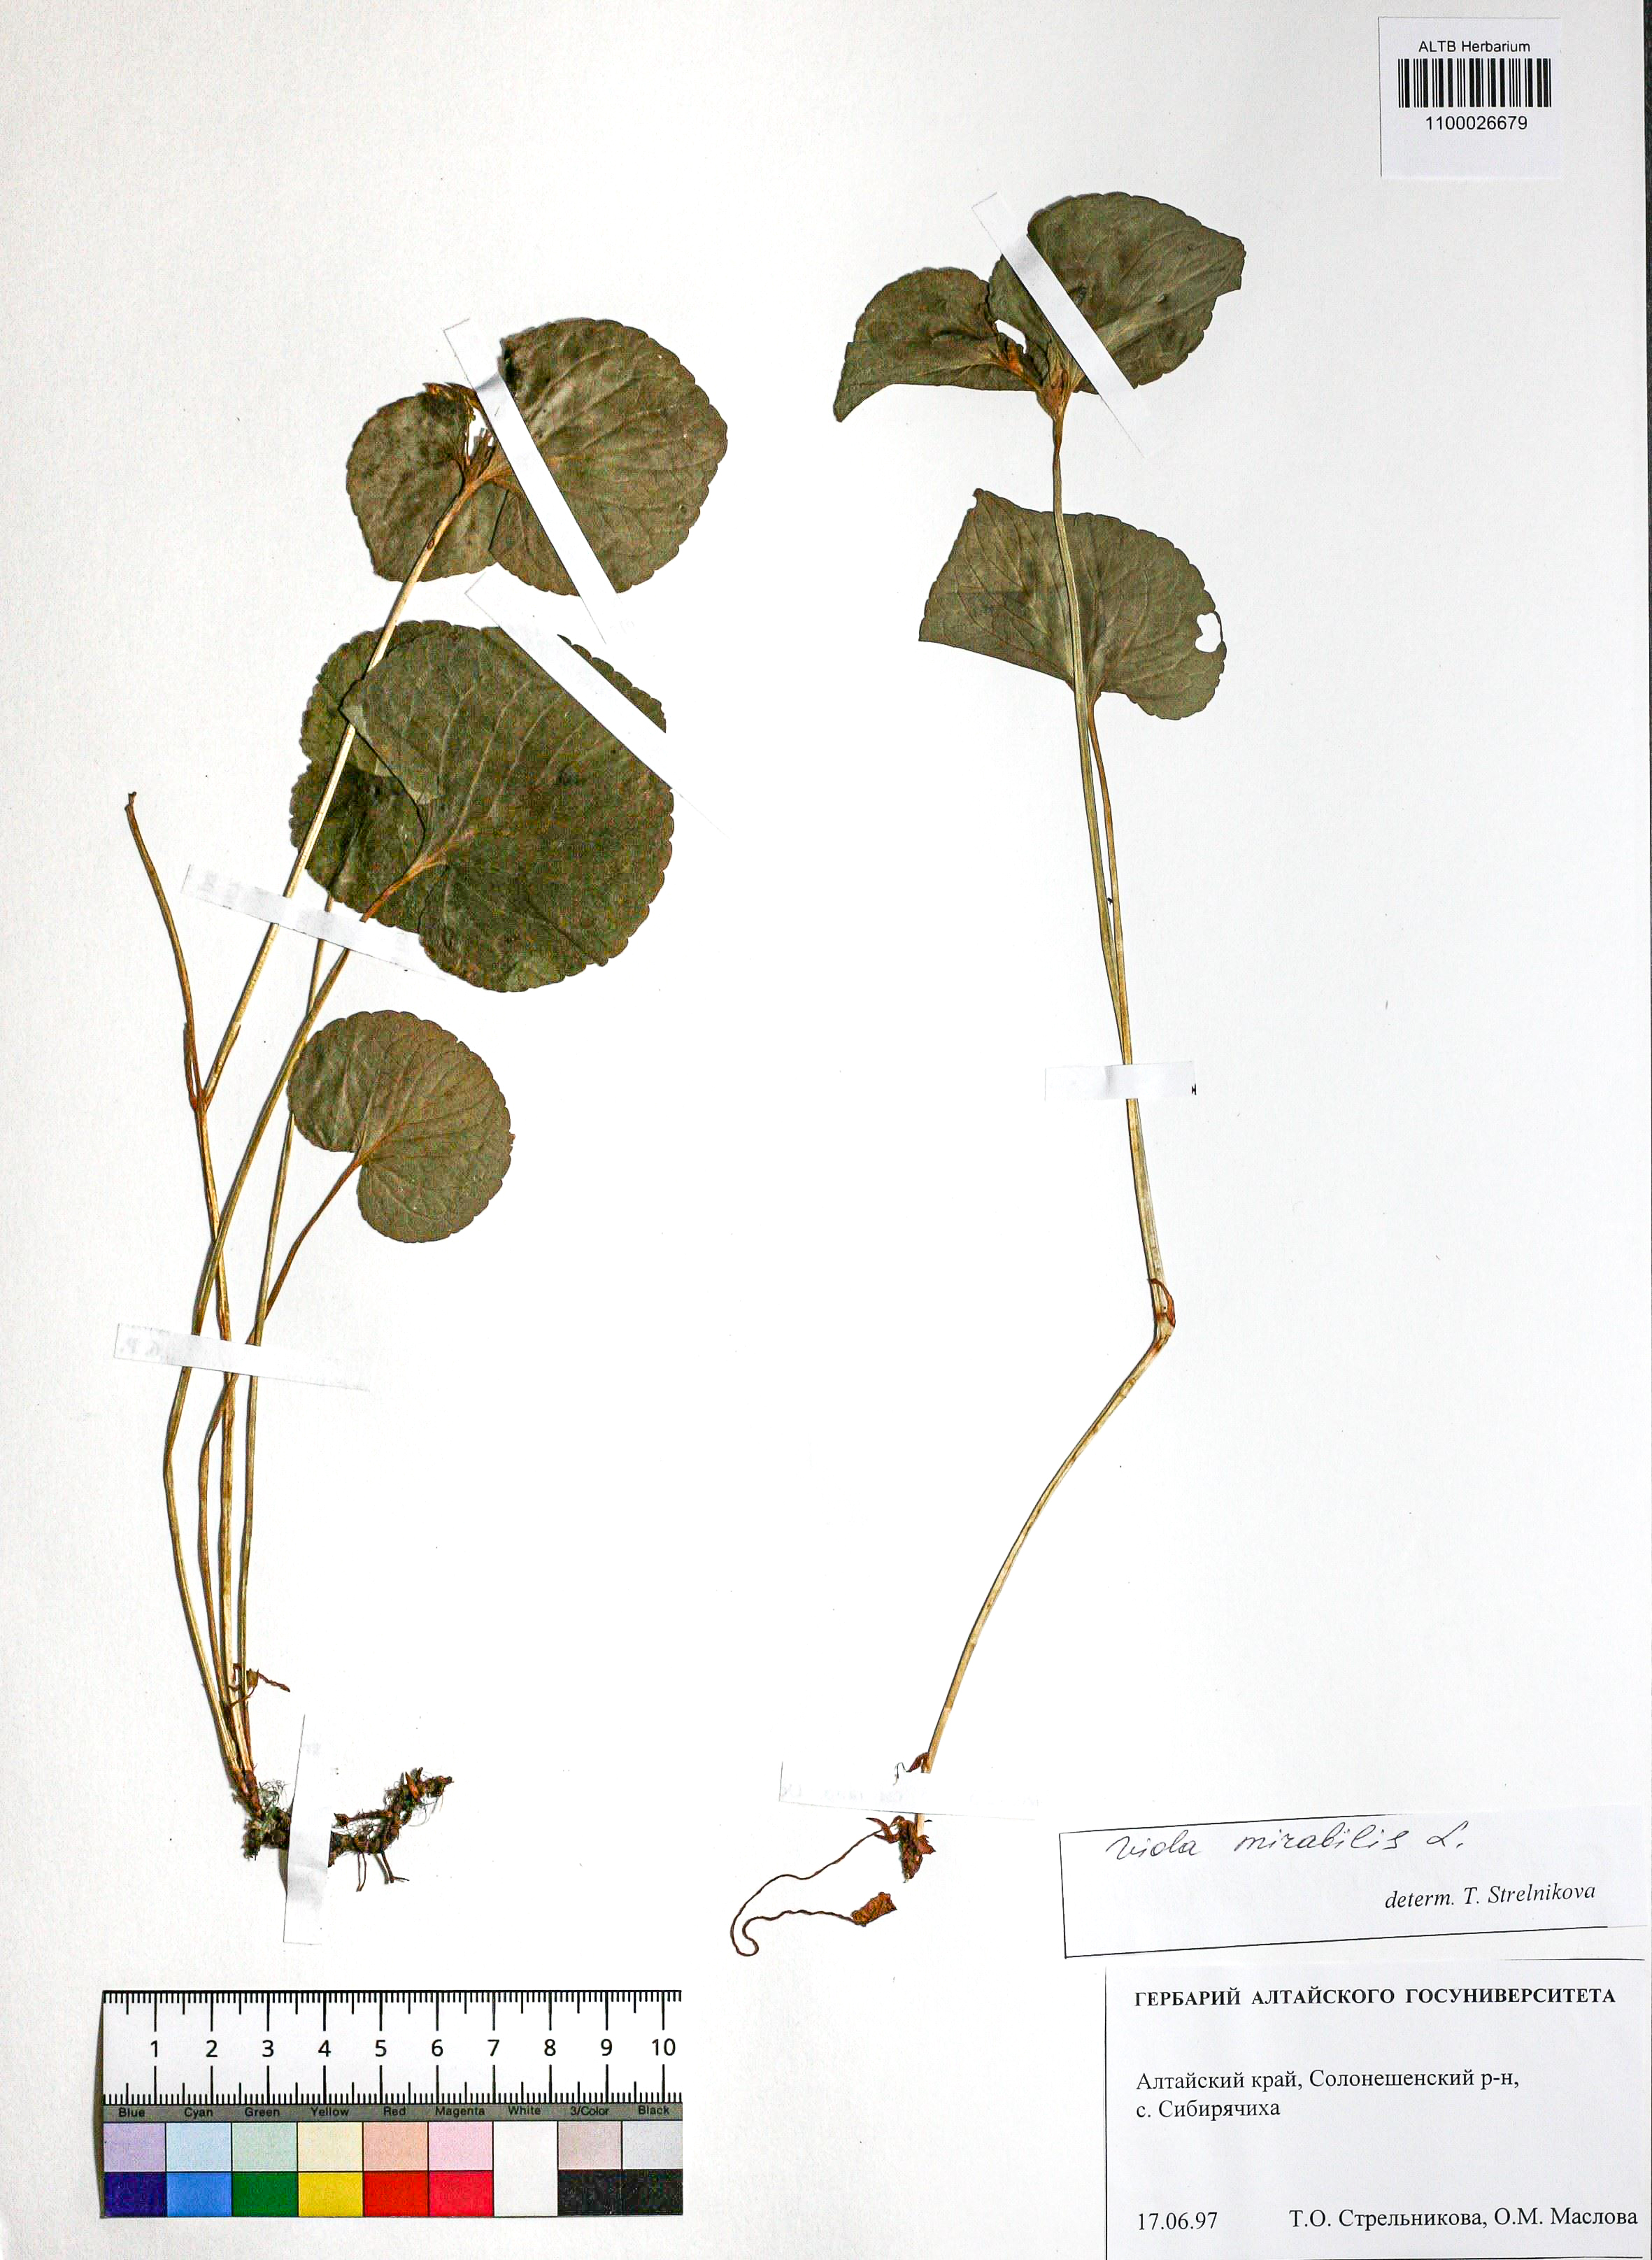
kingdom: Plantae
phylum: Tracheophyta
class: Magnoliopsida
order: Malpighiales
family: Violaceae
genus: Viola
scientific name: Viola mirabilis
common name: Wonder violet
